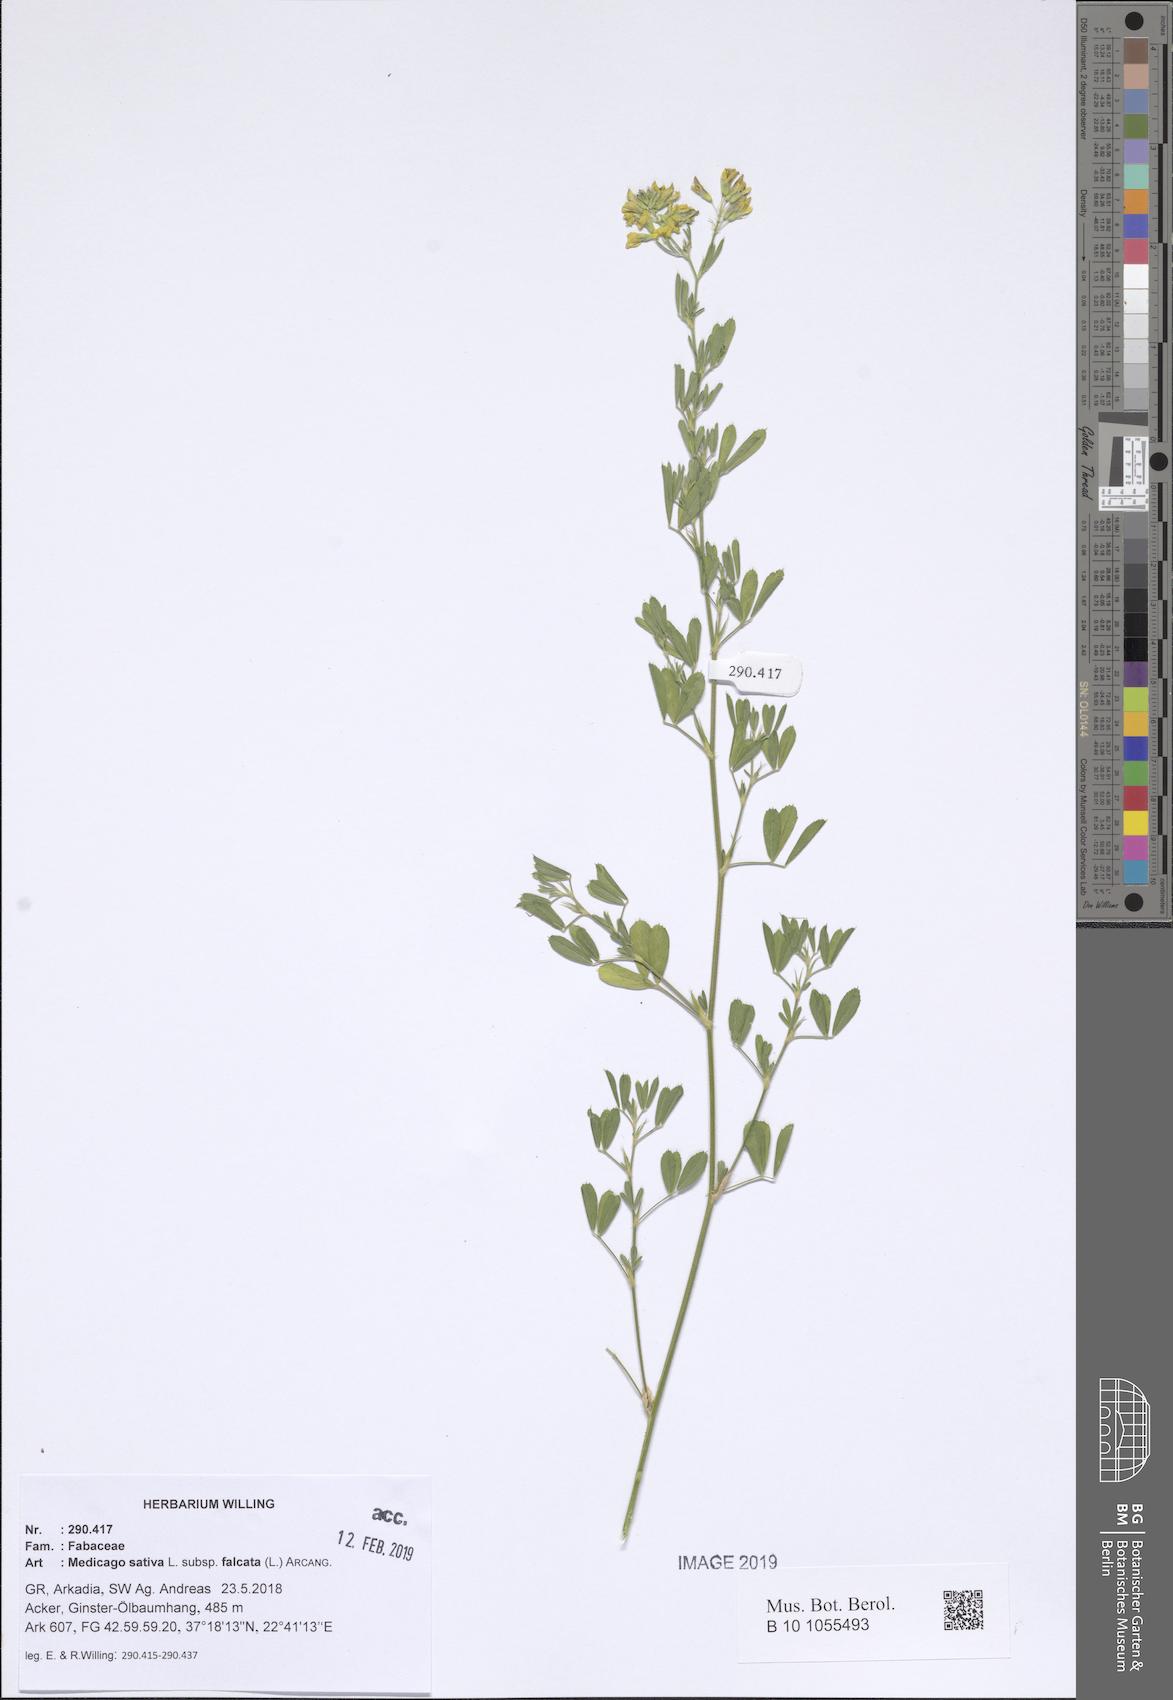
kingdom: Plantae
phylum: Tracheophyta
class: Magnoliopsida
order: Fabales
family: Fabaceae
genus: Medicago
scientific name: Medicago falcata
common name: Sickle medick
